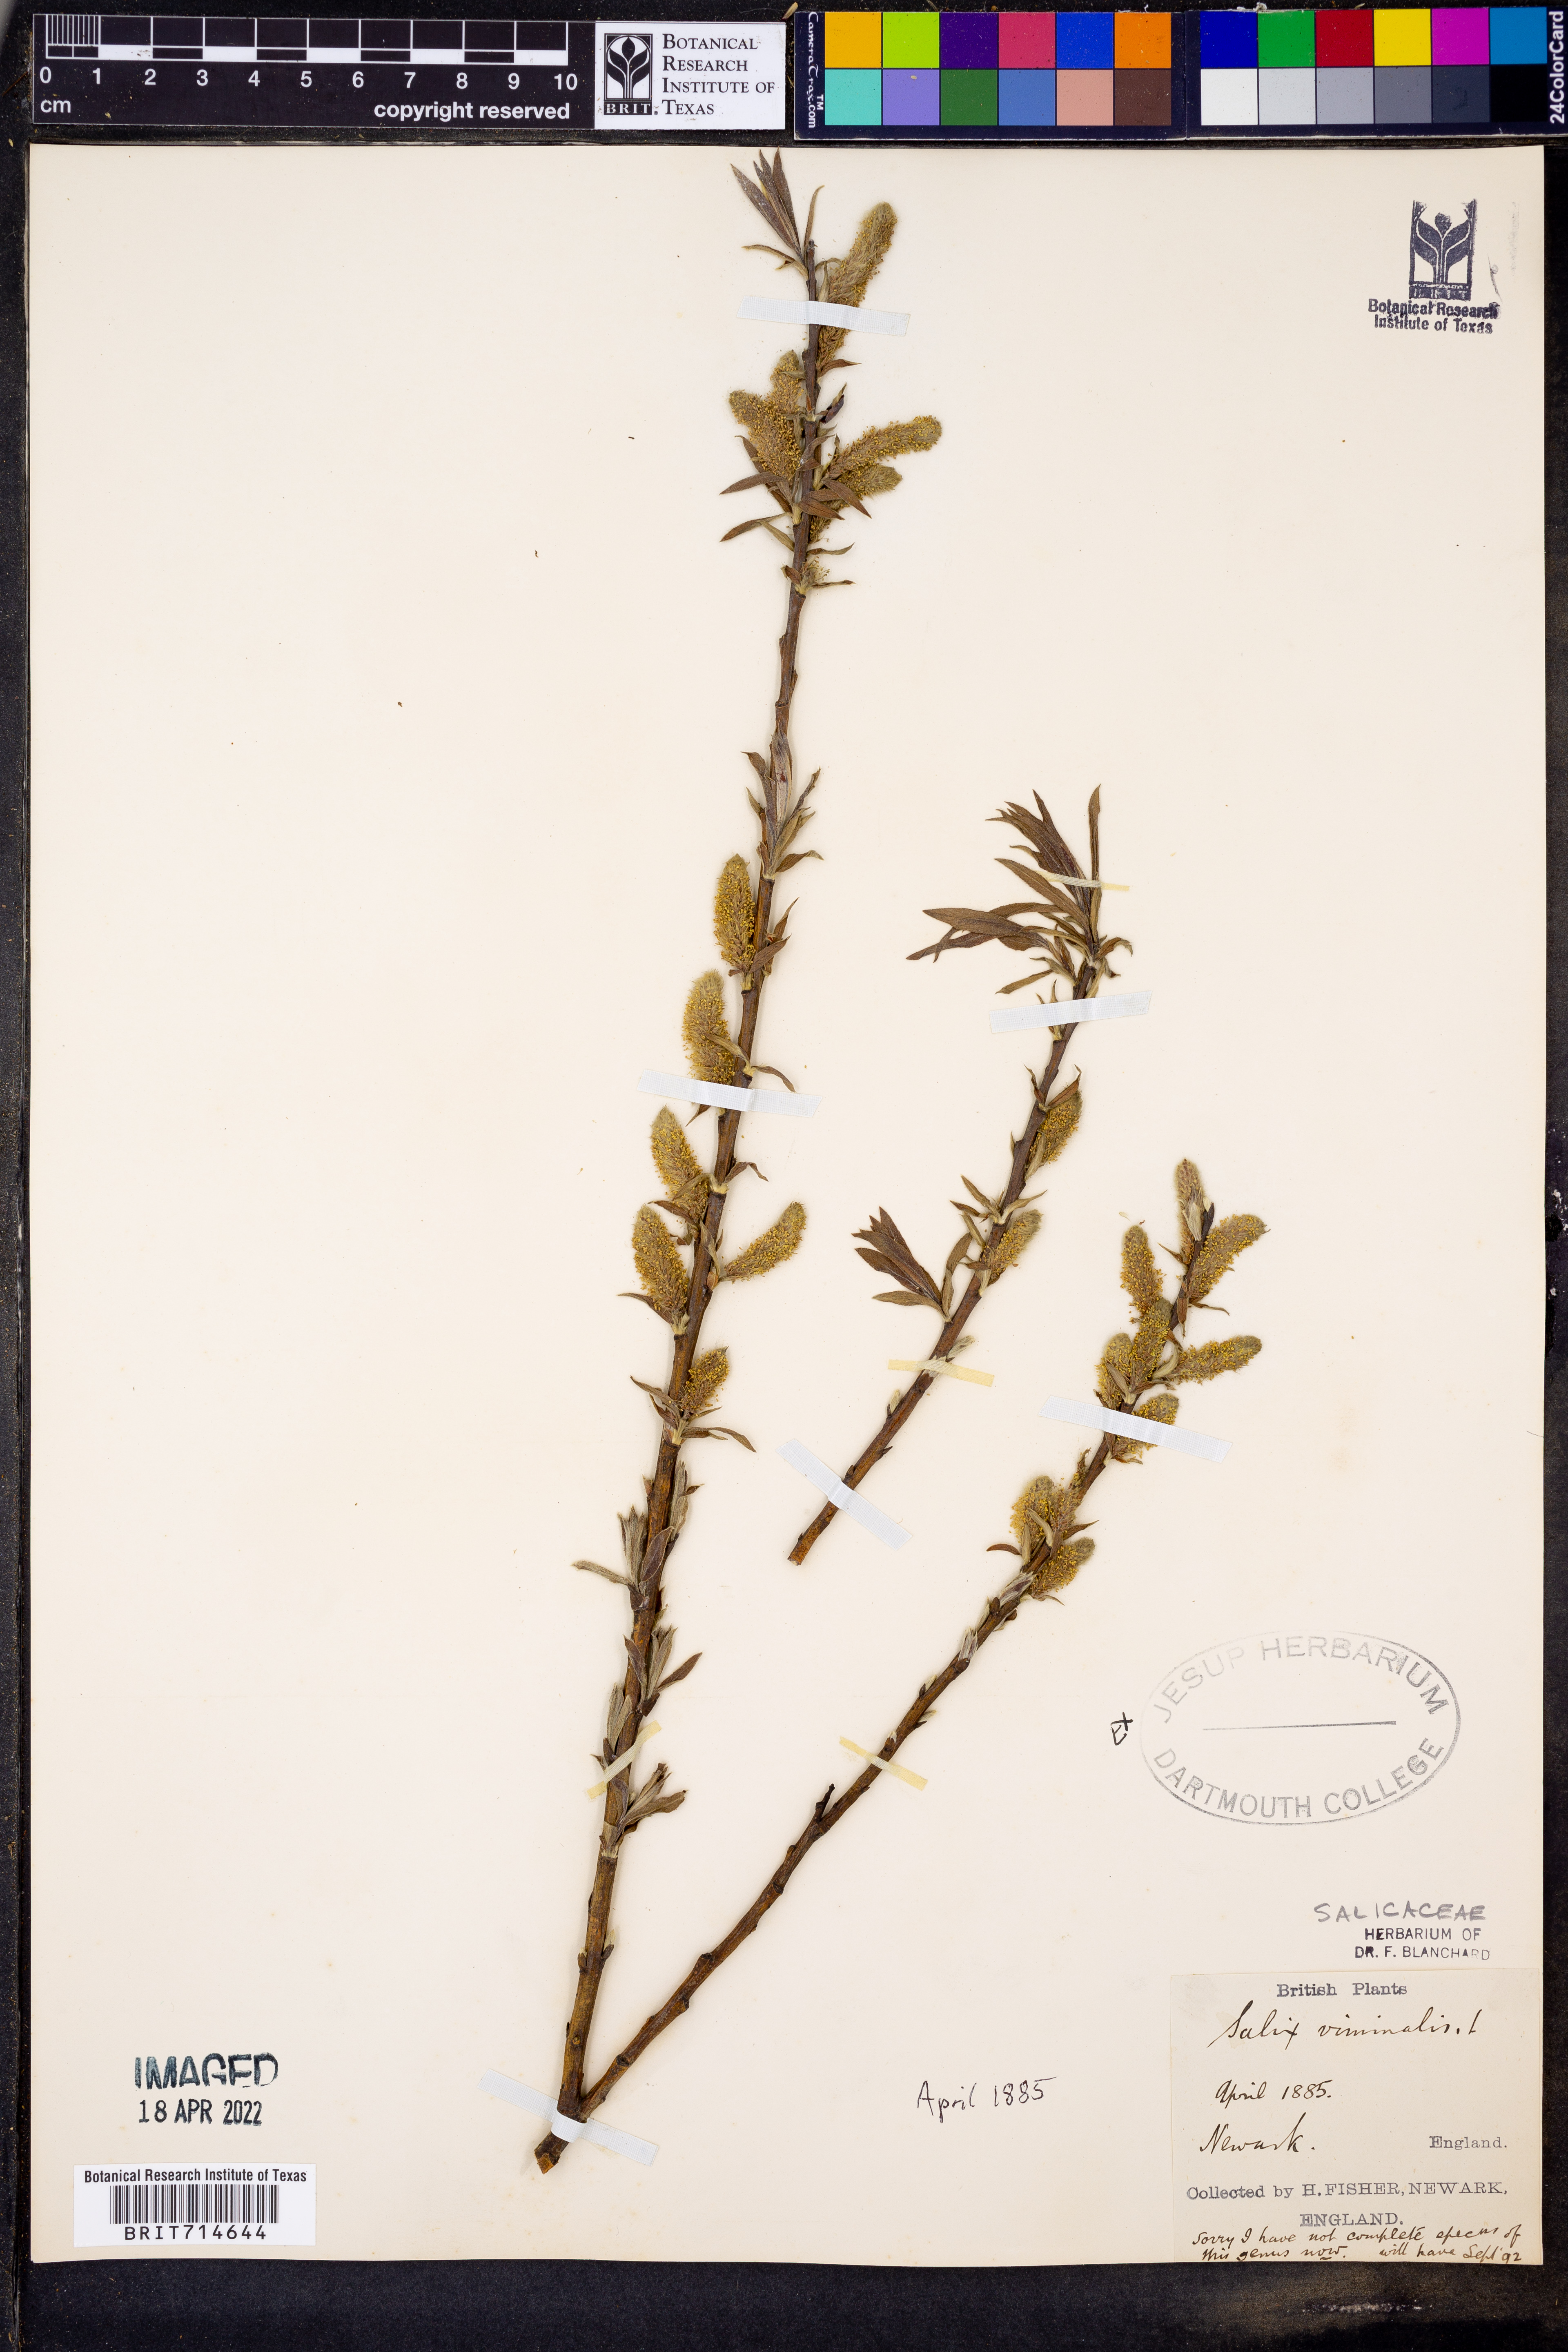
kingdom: Plantae
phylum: Tracheophyta
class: Magnoliopsida
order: Malpighiales
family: Salicaceae
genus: Salix
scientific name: Salix
